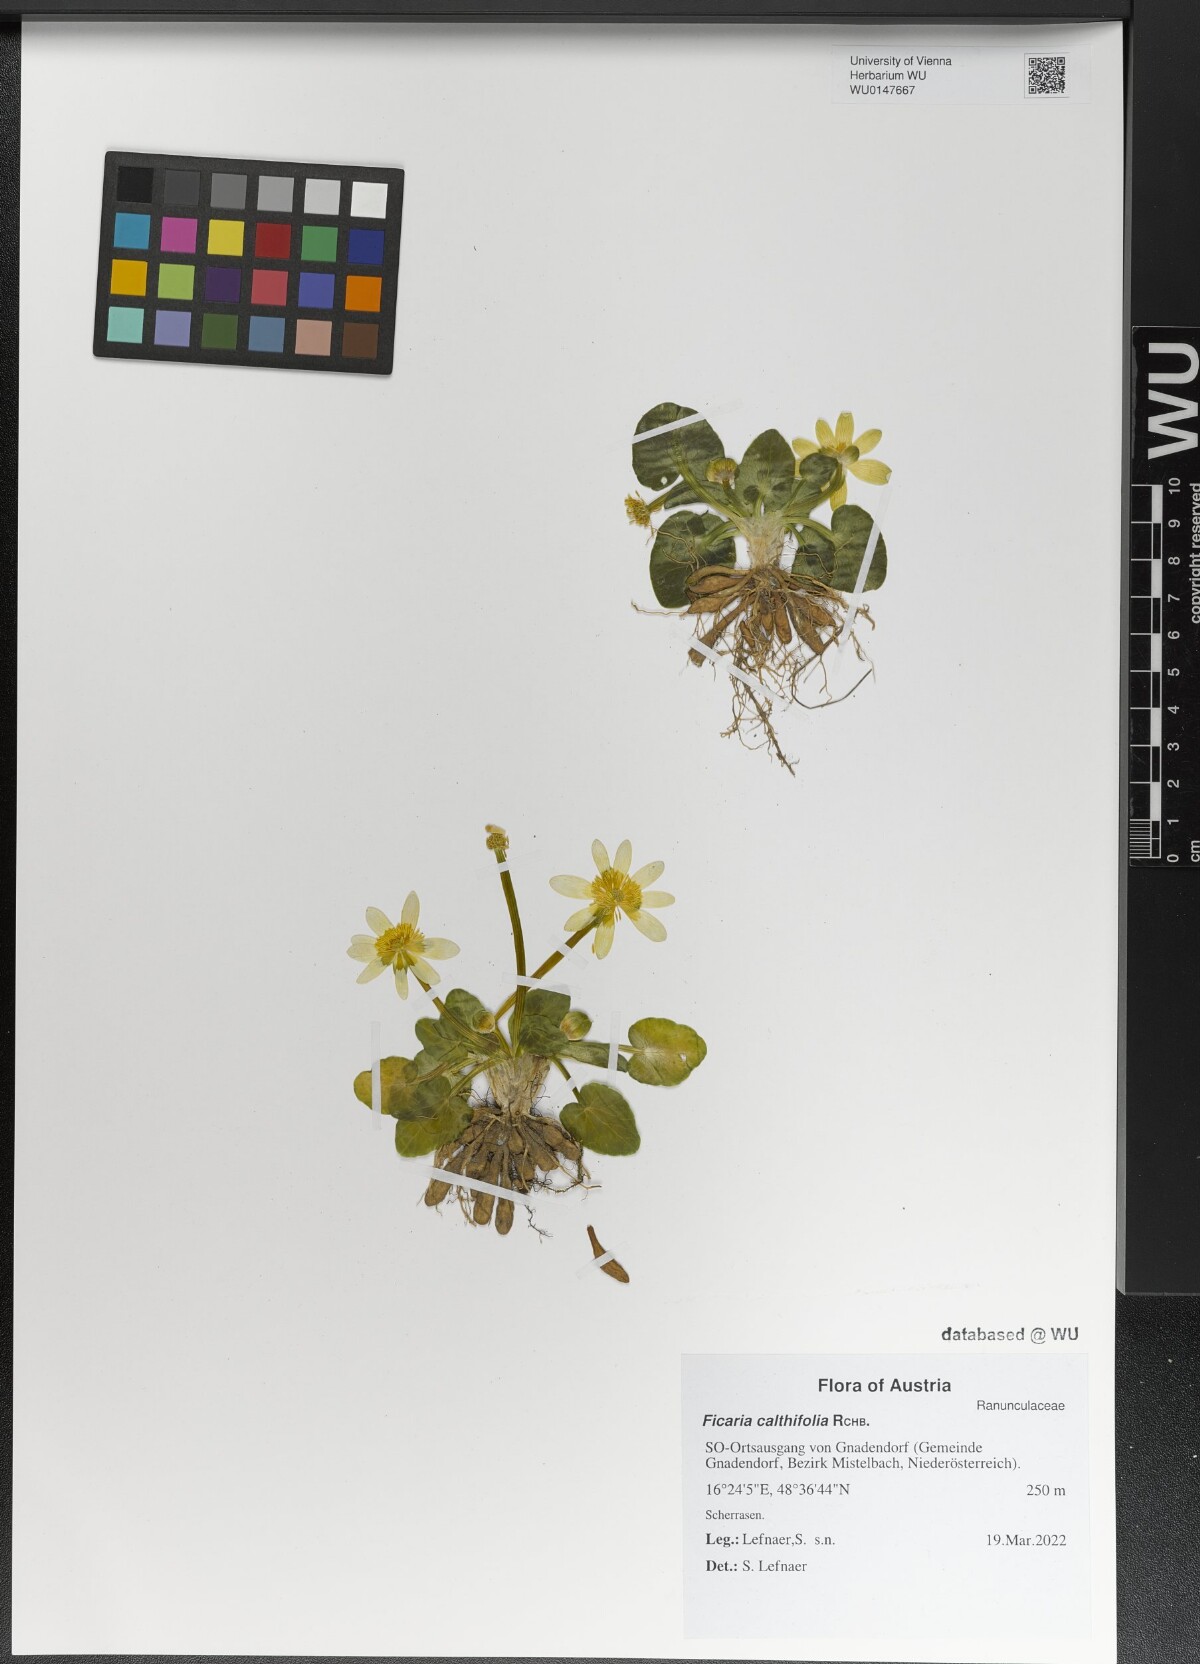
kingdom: Plantae
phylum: Tracheophyta
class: Magnoliopsida
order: Ranunculales
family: Ranunculaceae
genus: Ficaria
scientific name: Ficaria calthifolia
